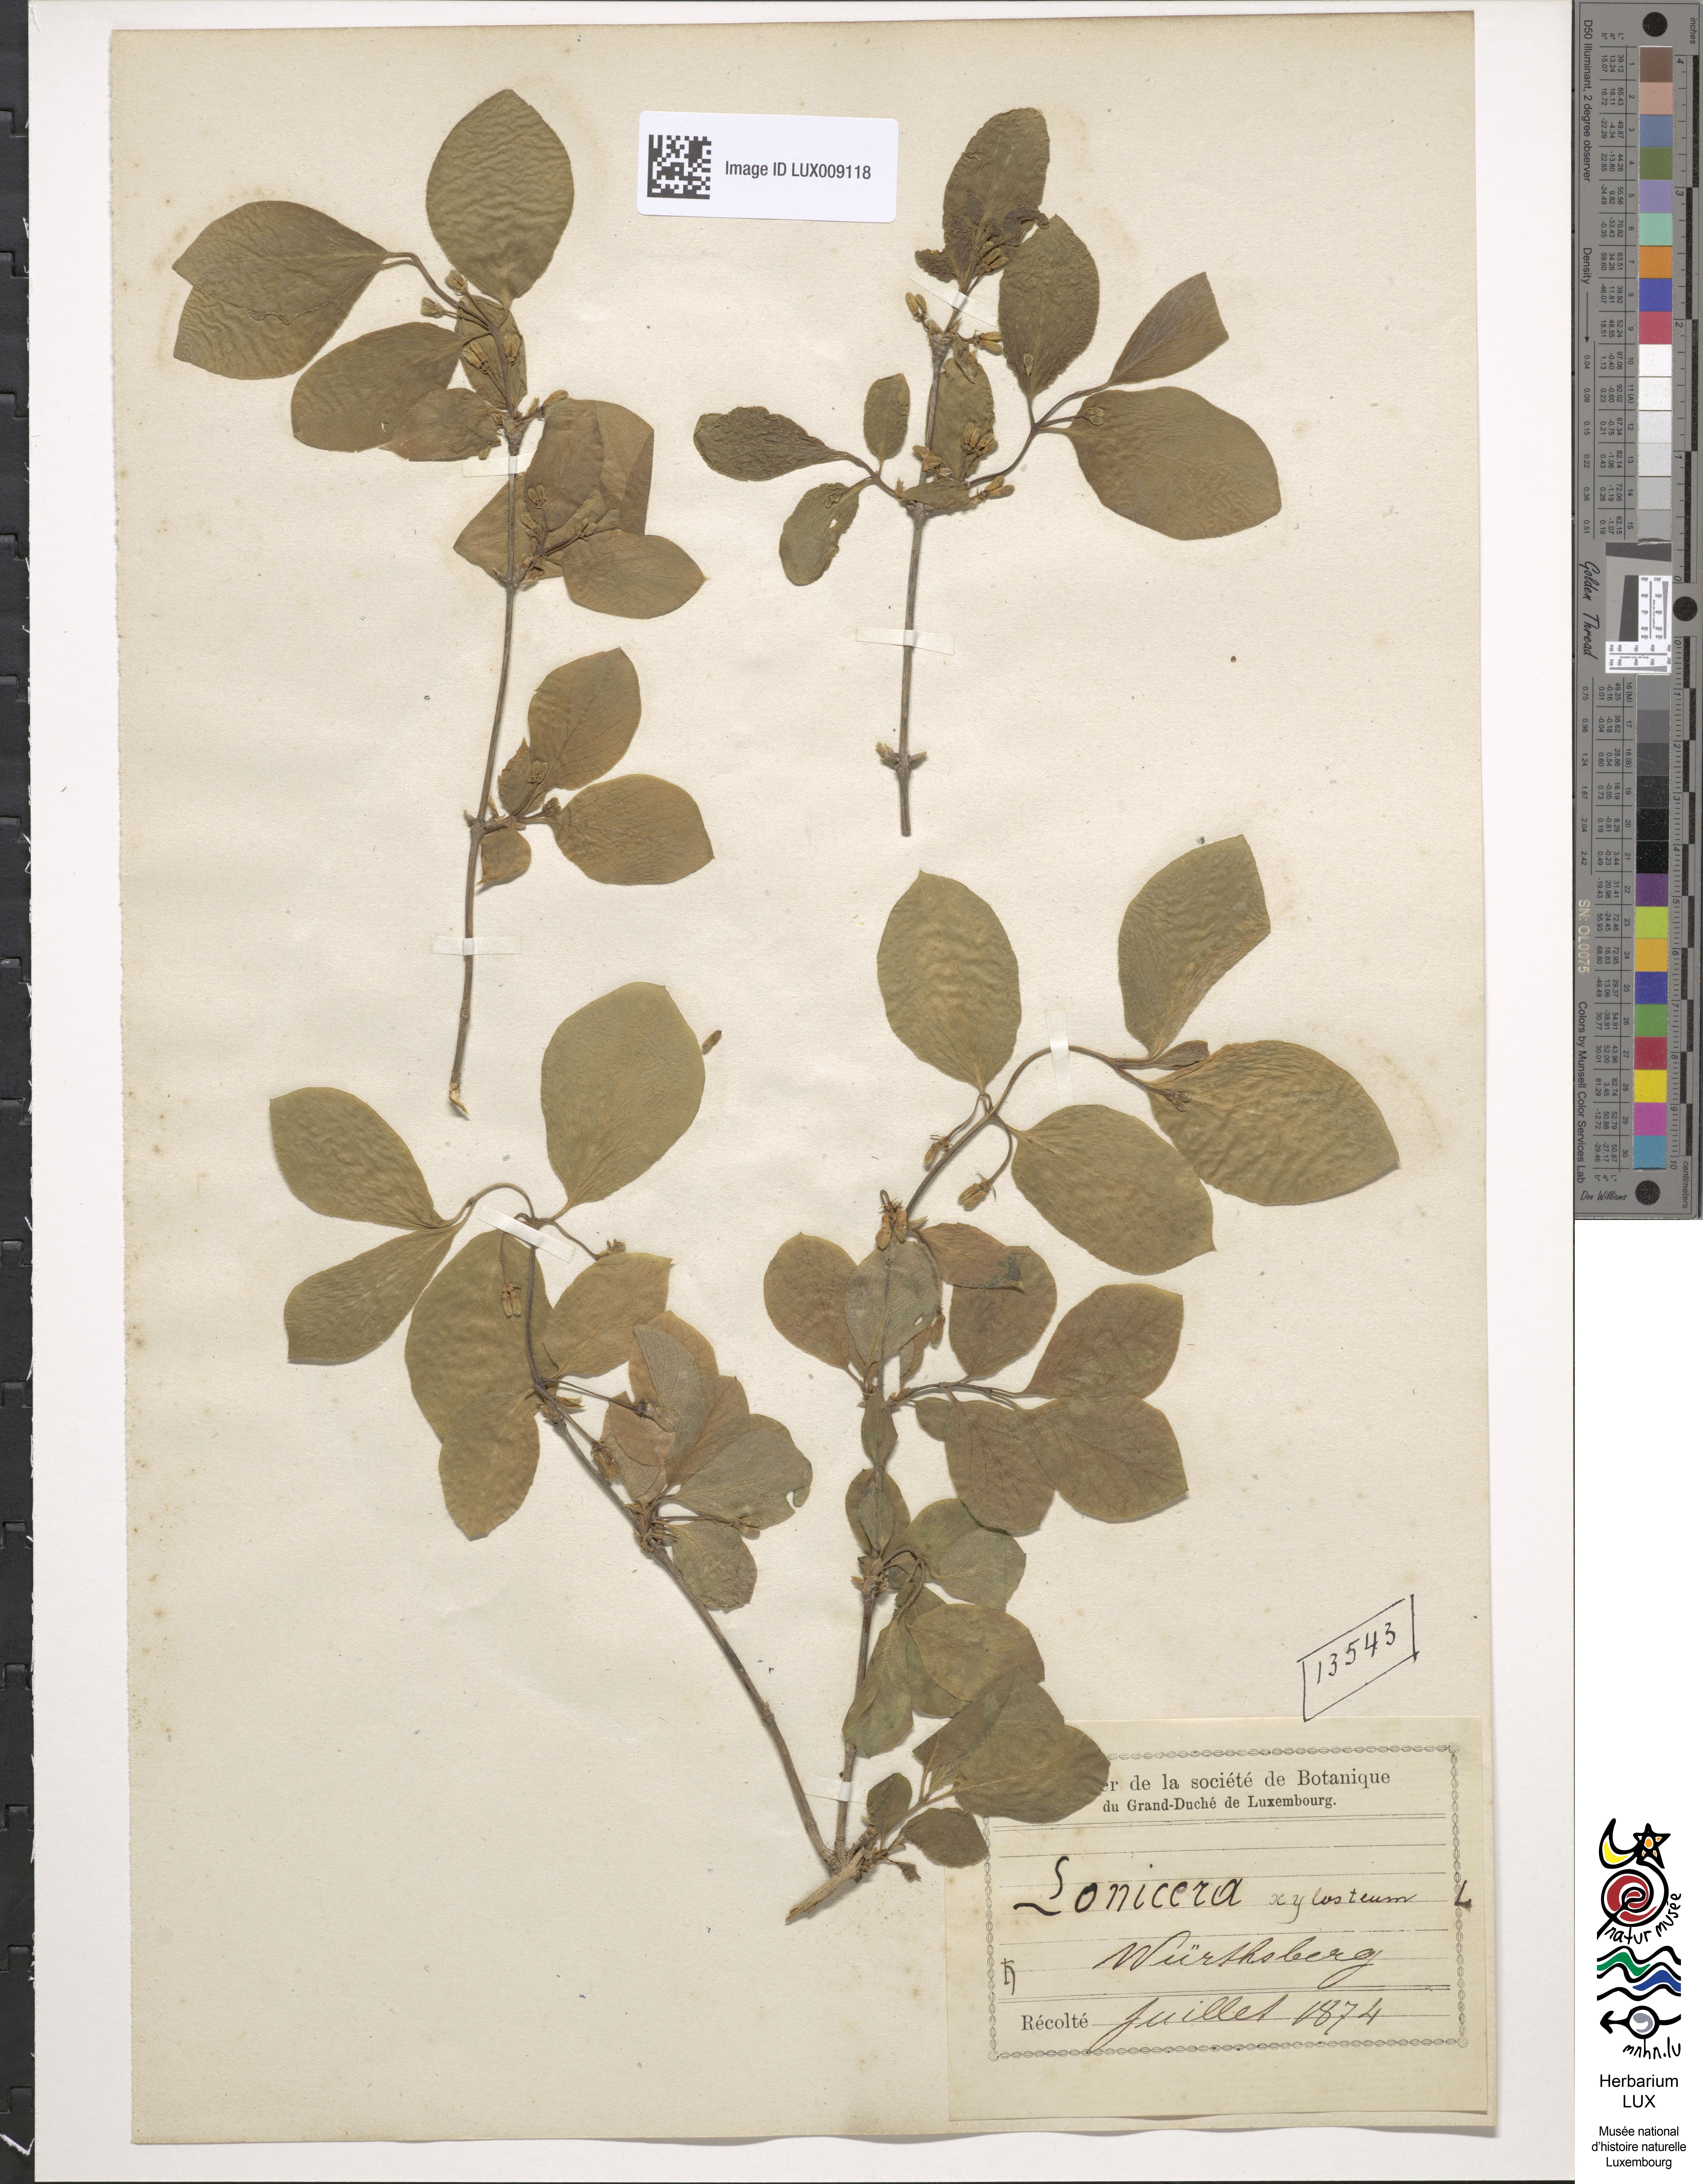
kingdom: Plantae
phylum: Tracheophyta
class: Magnoliopsida
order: Dipsacales
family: Caprifoliaceae
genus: Lonicera
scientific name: Lonicera xylosteum
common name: Fly honeysuckle
